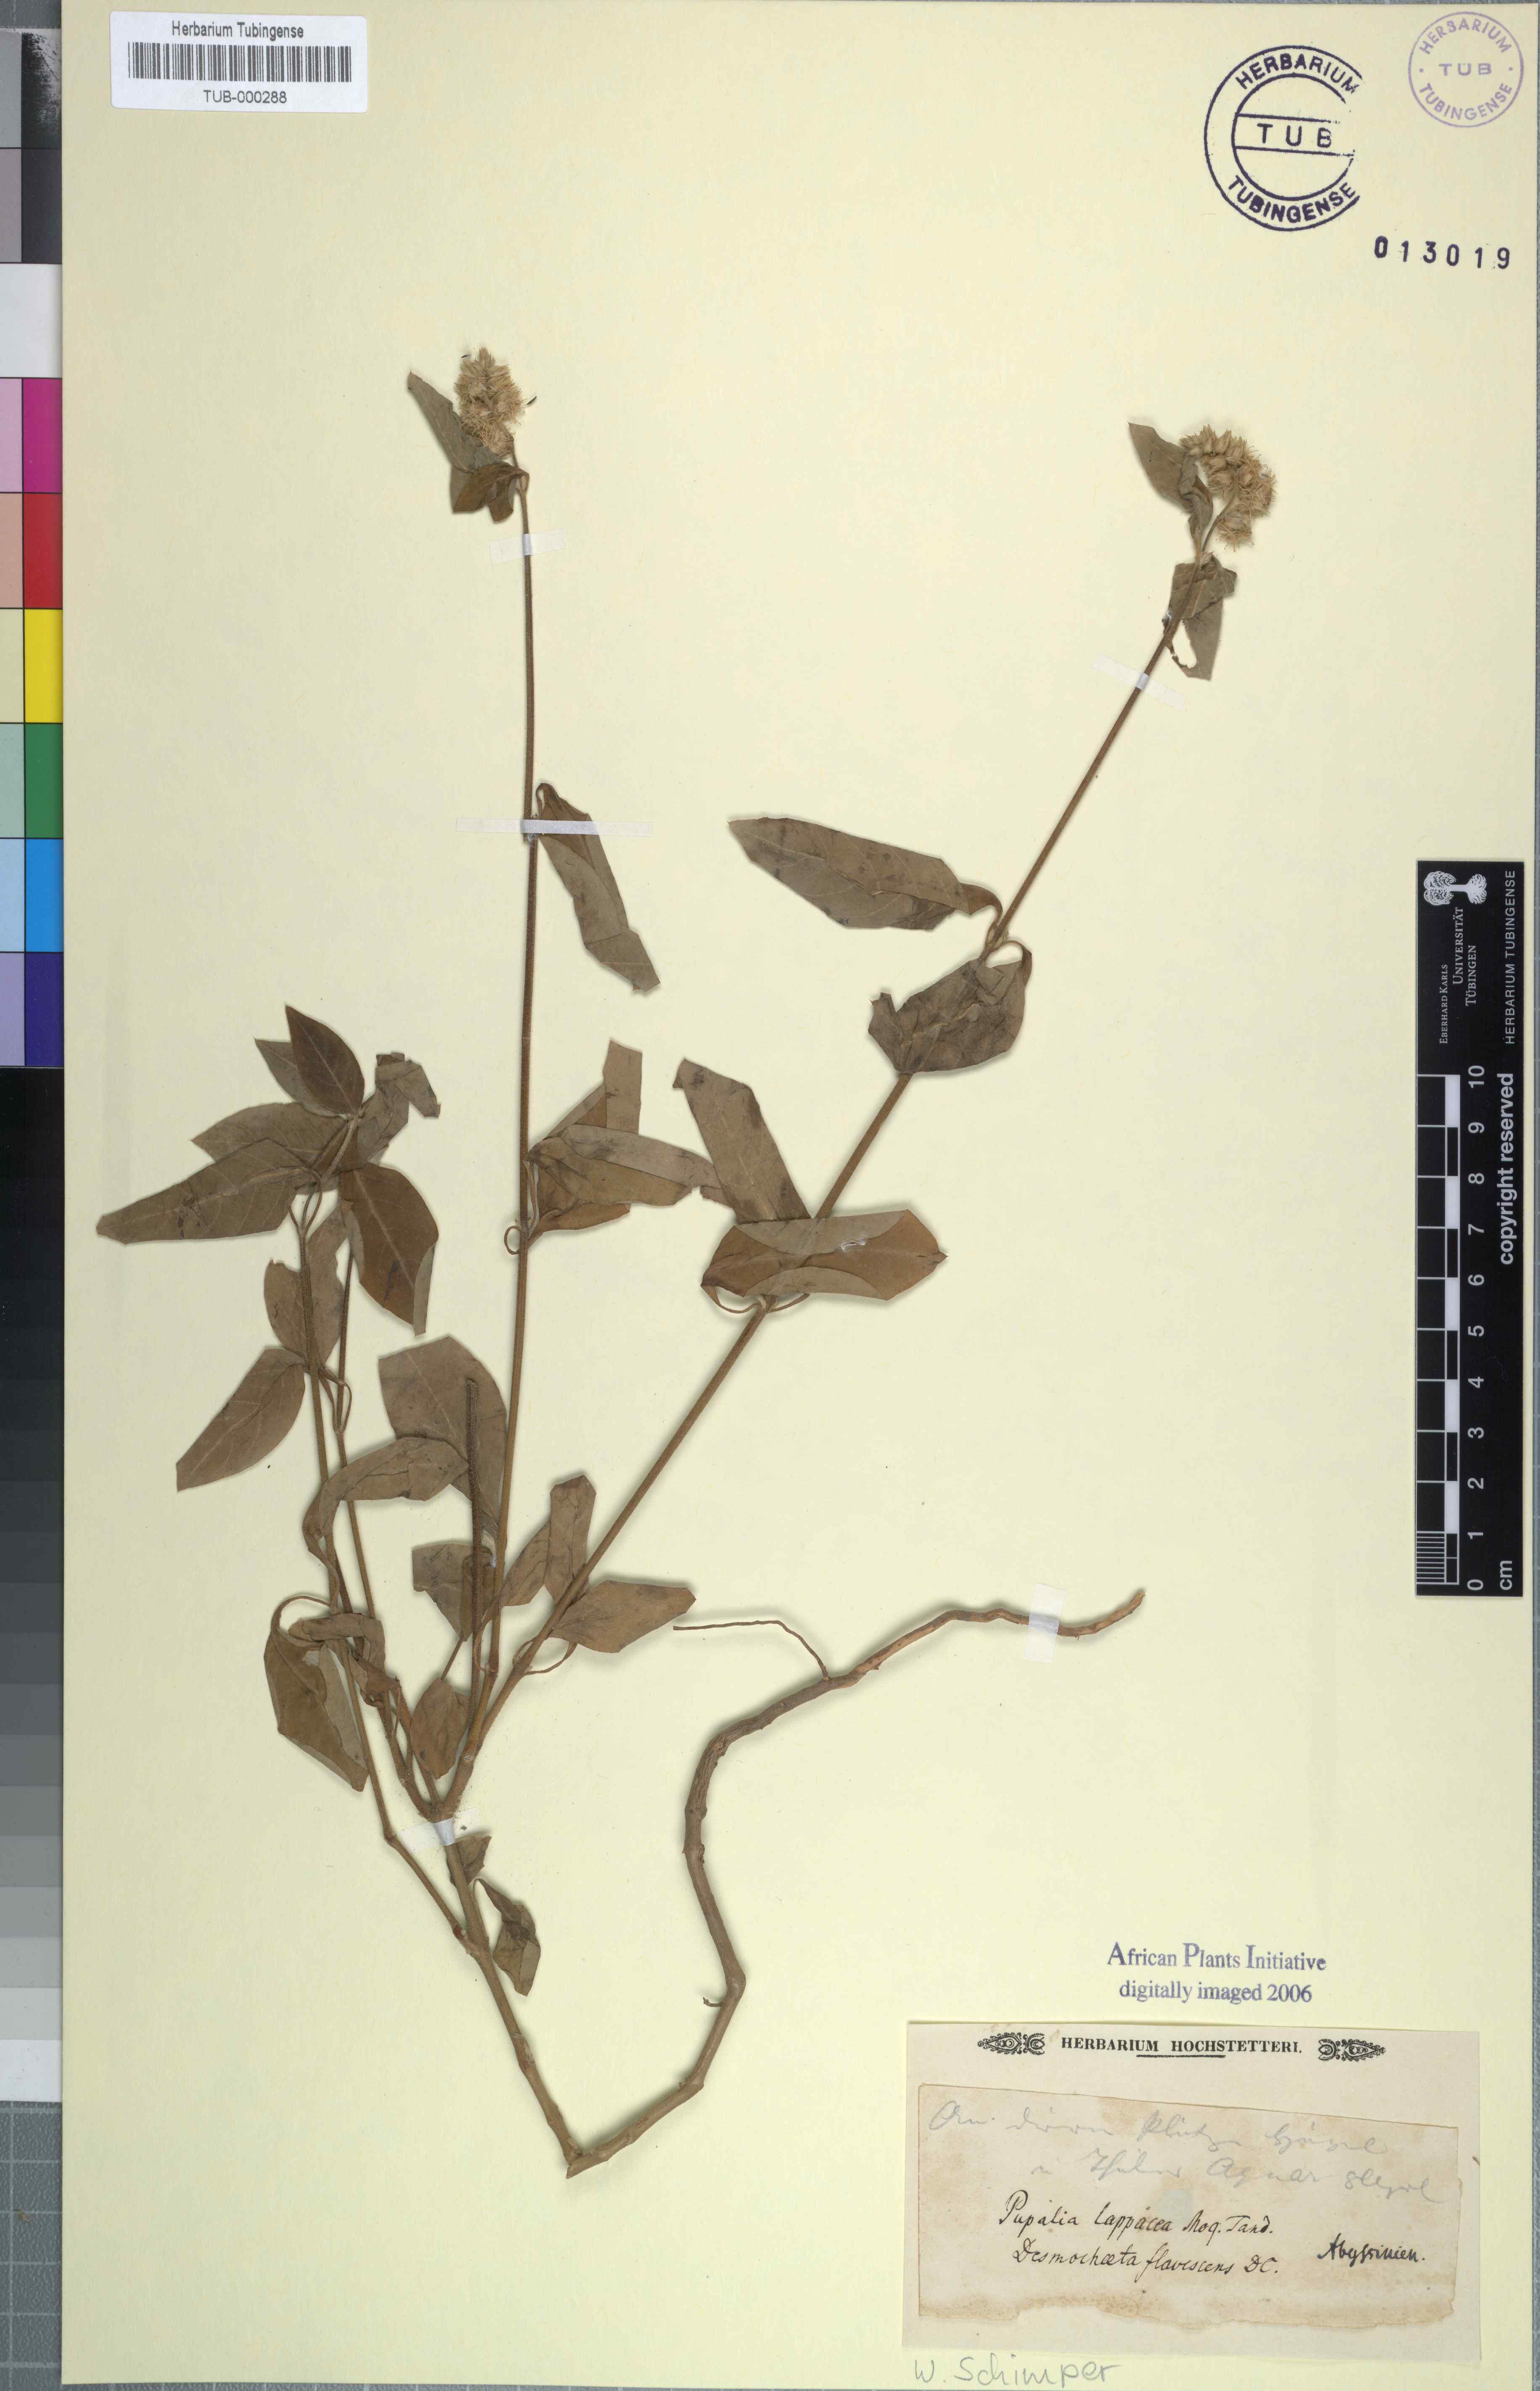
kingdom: Plantae
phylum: Tracheophyta
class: Magnoliopsida
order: Caryophyllales
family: Amaranthaceae
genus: Pupalia
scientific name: Pupalia lappacea
